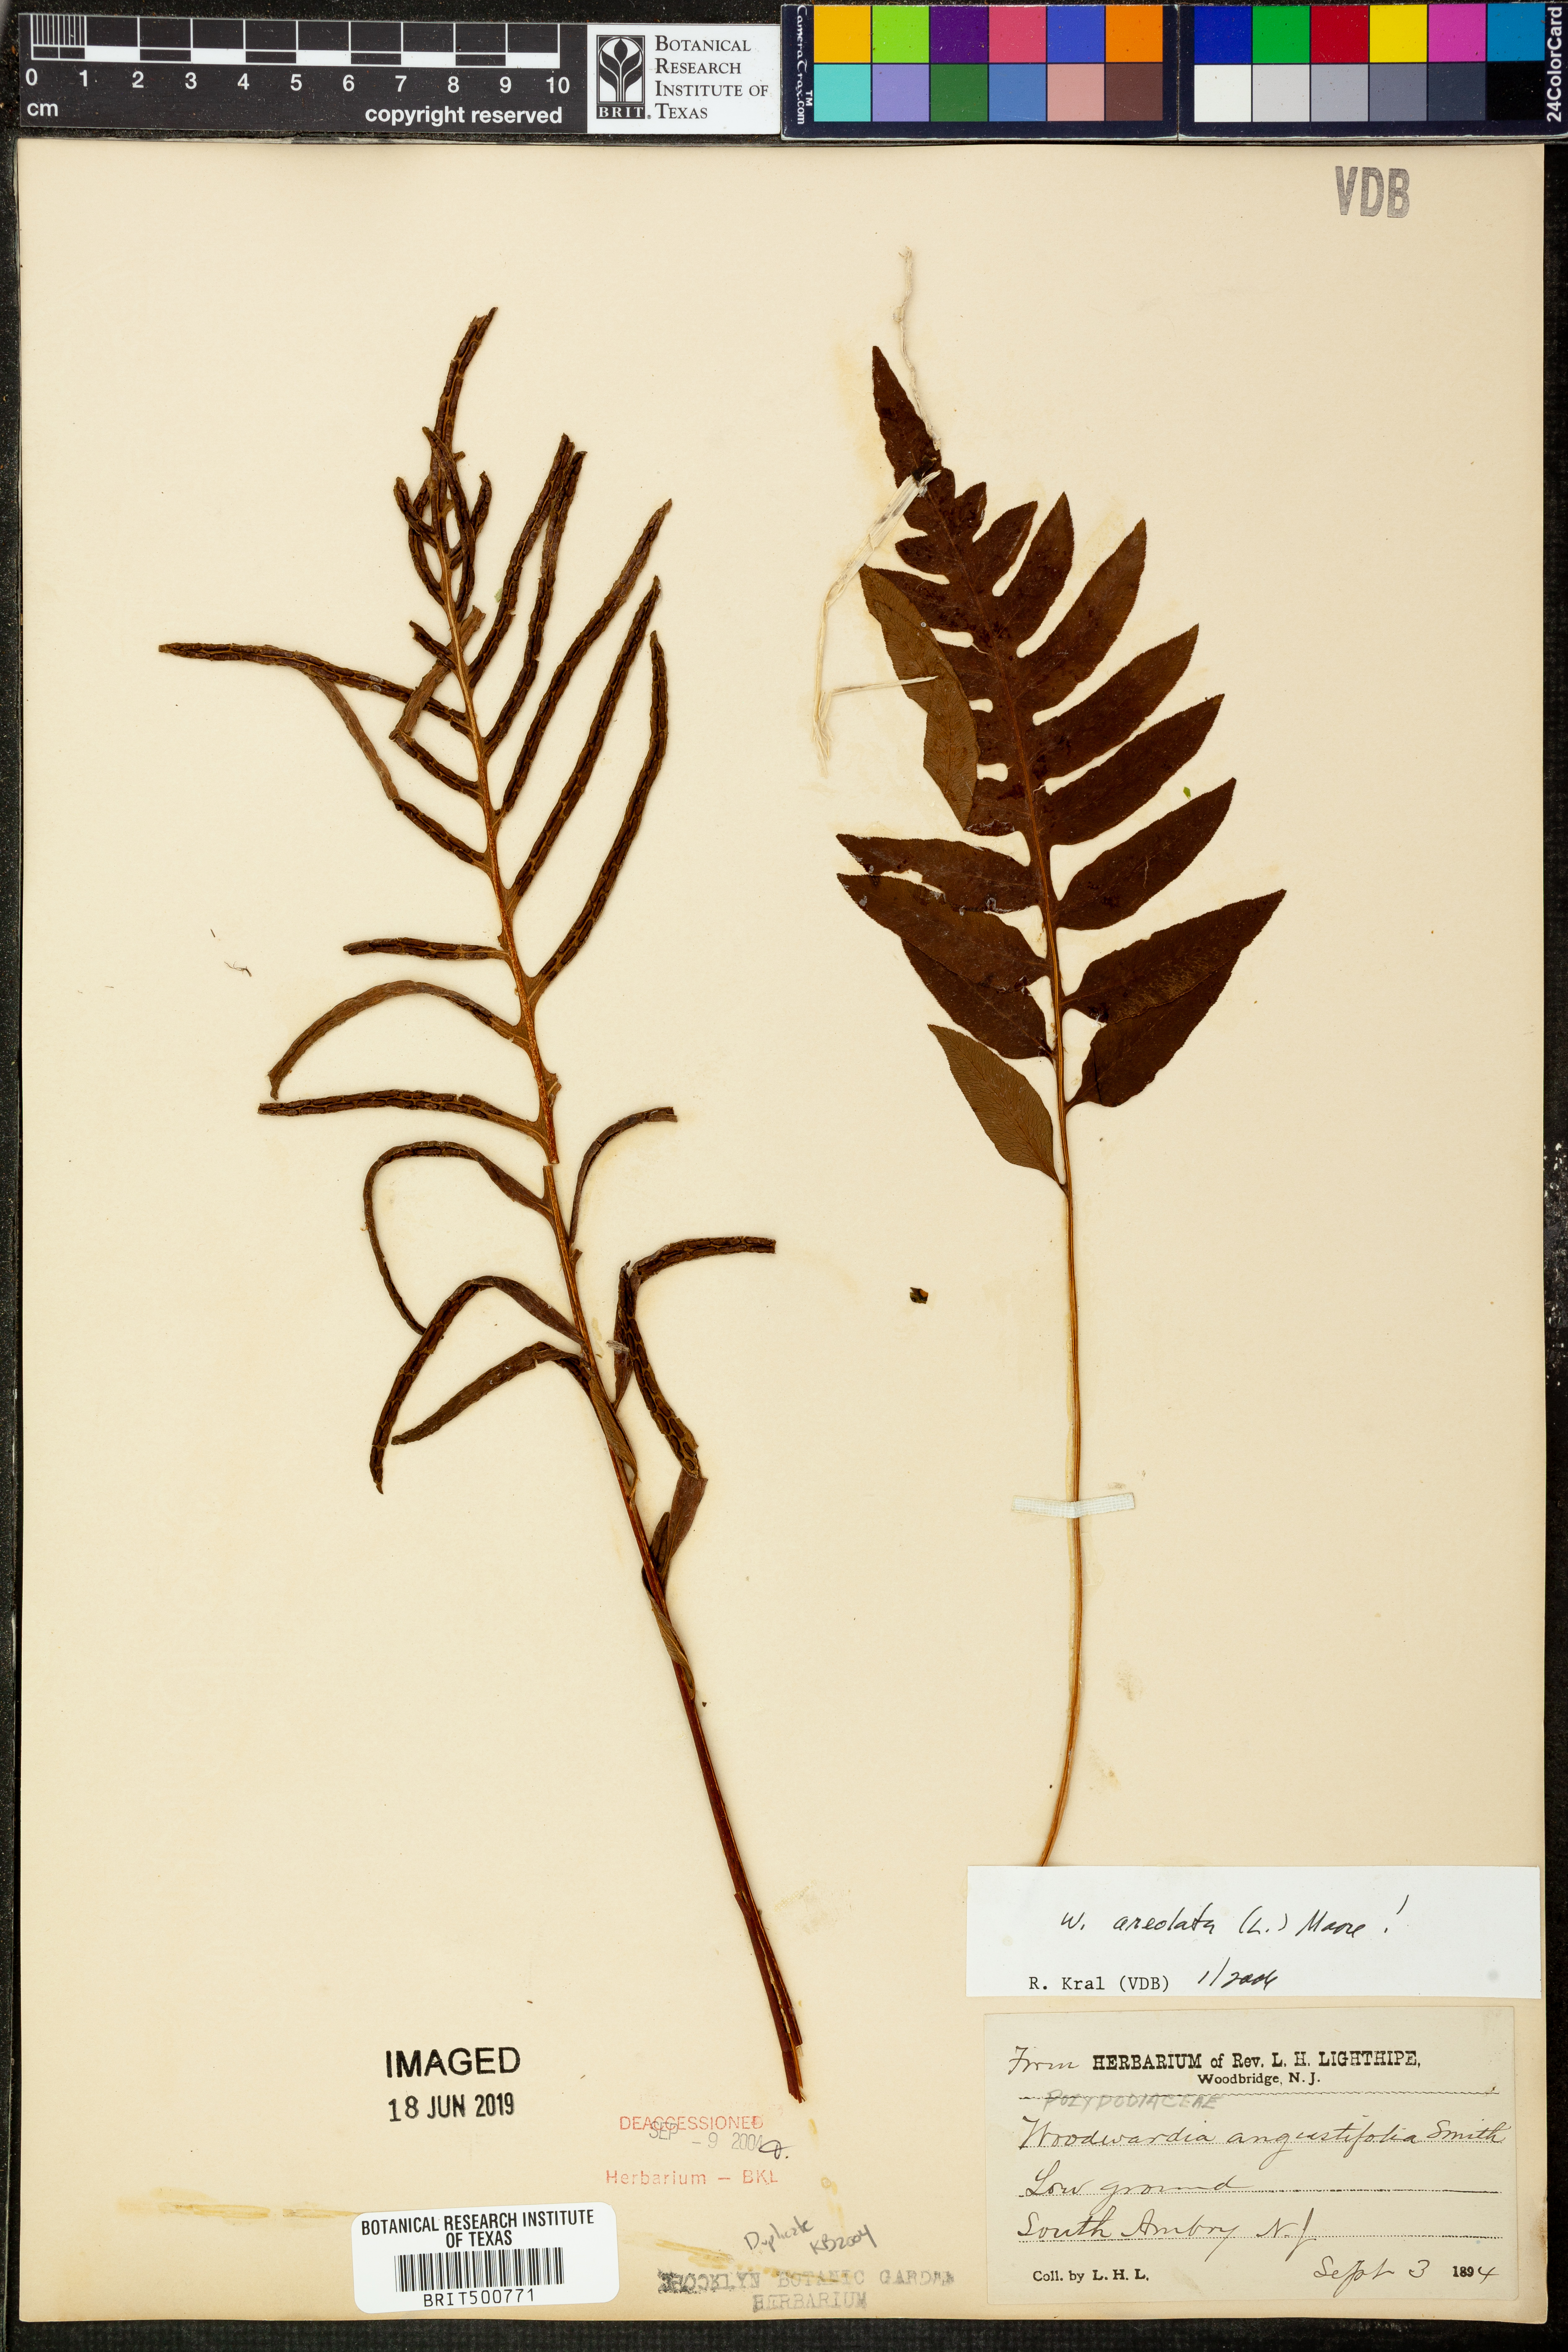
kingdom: Plantae
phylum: Tracheophyta
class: Polypodiopsida
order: Polypodiales
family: Blechnaceae
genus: Lorinseria
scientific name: Lorinseria areolata
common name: Dwarf chain fern
